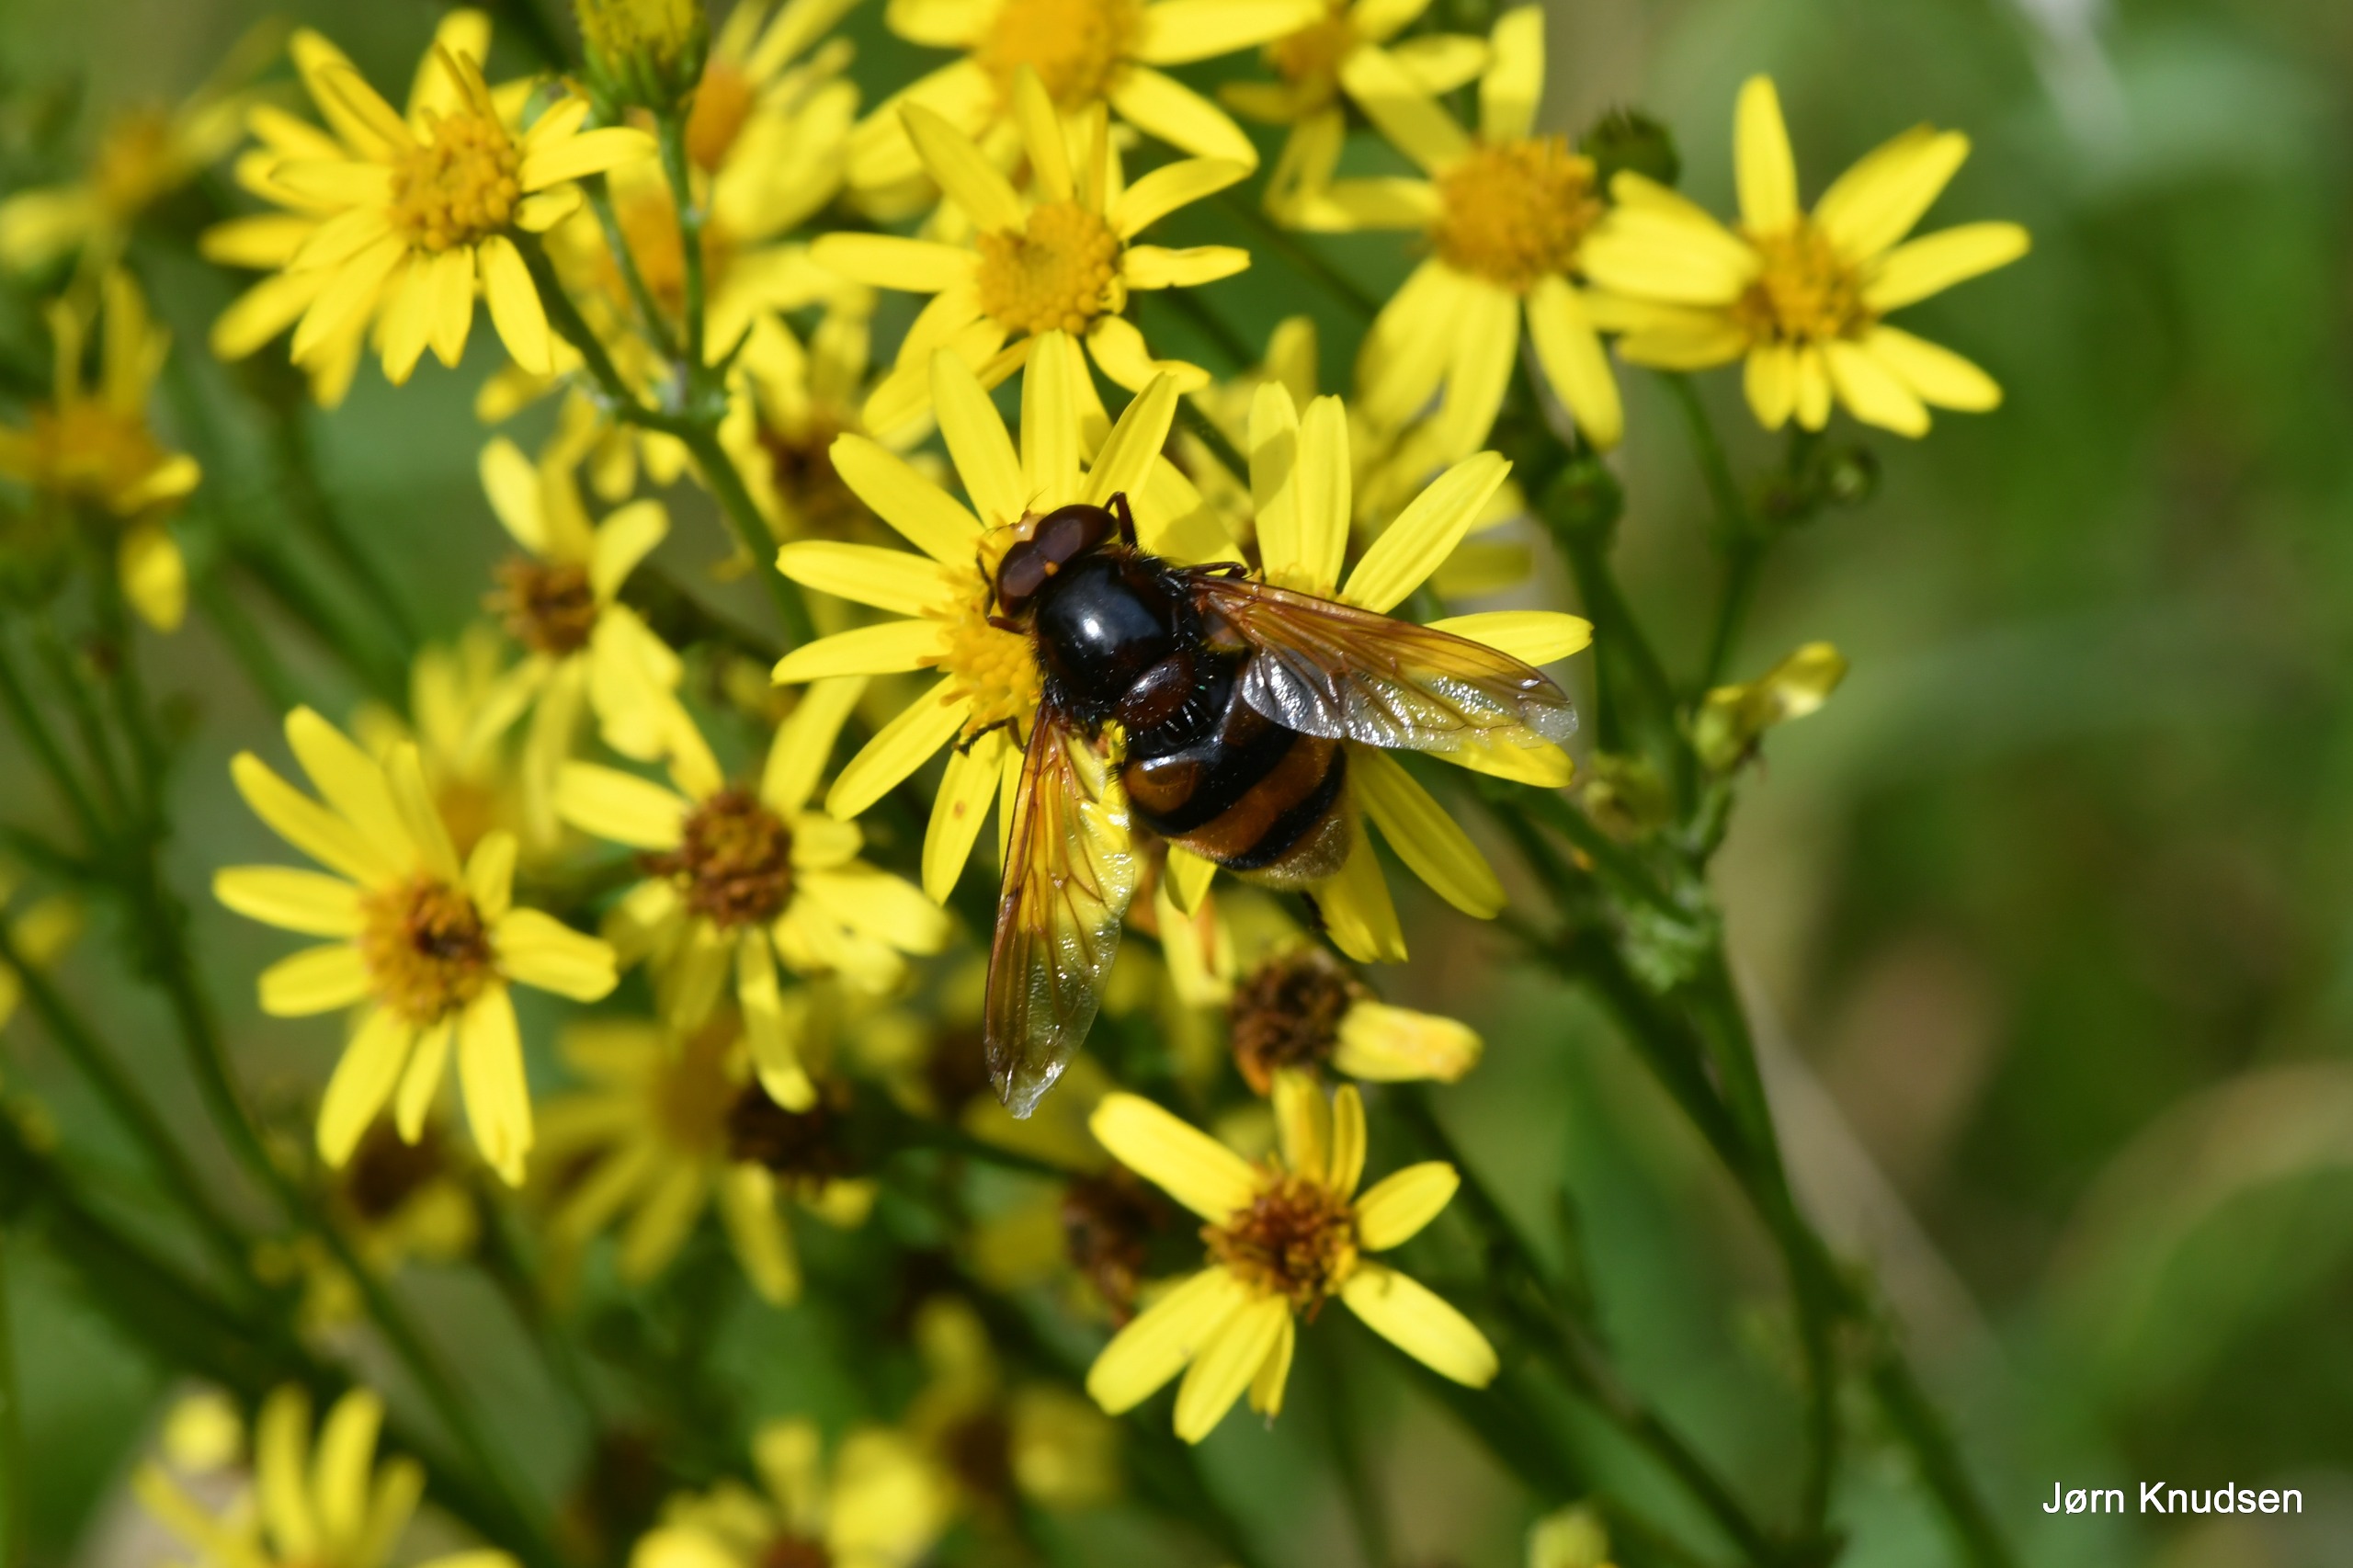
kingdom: Animalia
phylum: Arthropoda
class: Insecta
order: Diptera
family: Syrphidae
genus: Volucella
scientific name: Volucella zonaria
